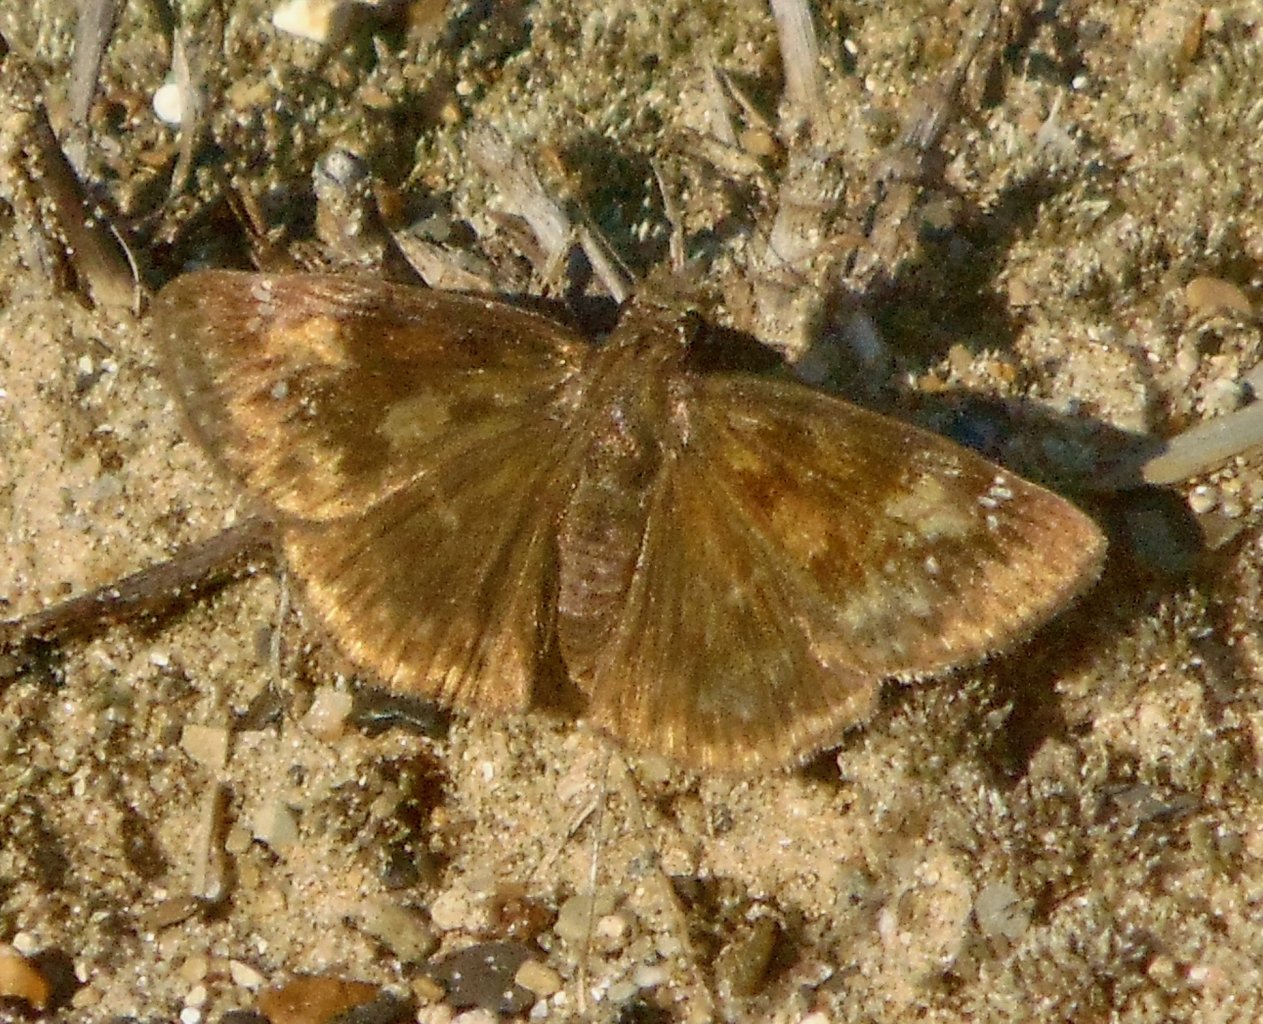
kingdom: Animalia
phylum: Arthropoda
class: Insecta
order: Lepidoptera
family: Hesperiidae
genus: Gesta
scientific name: Gesta
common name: Wild Indigo Duskywing
